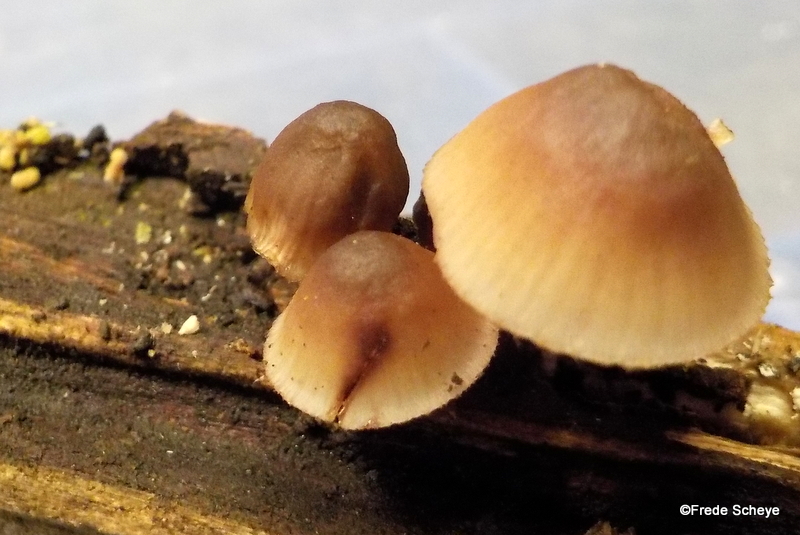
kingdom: Fungi
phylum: Basidiomycota
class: Agaricomycetes
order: Agaricales
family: Mycenaceae
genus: Mycena
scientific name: Mycena haematopus
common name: blødende huesvamp
